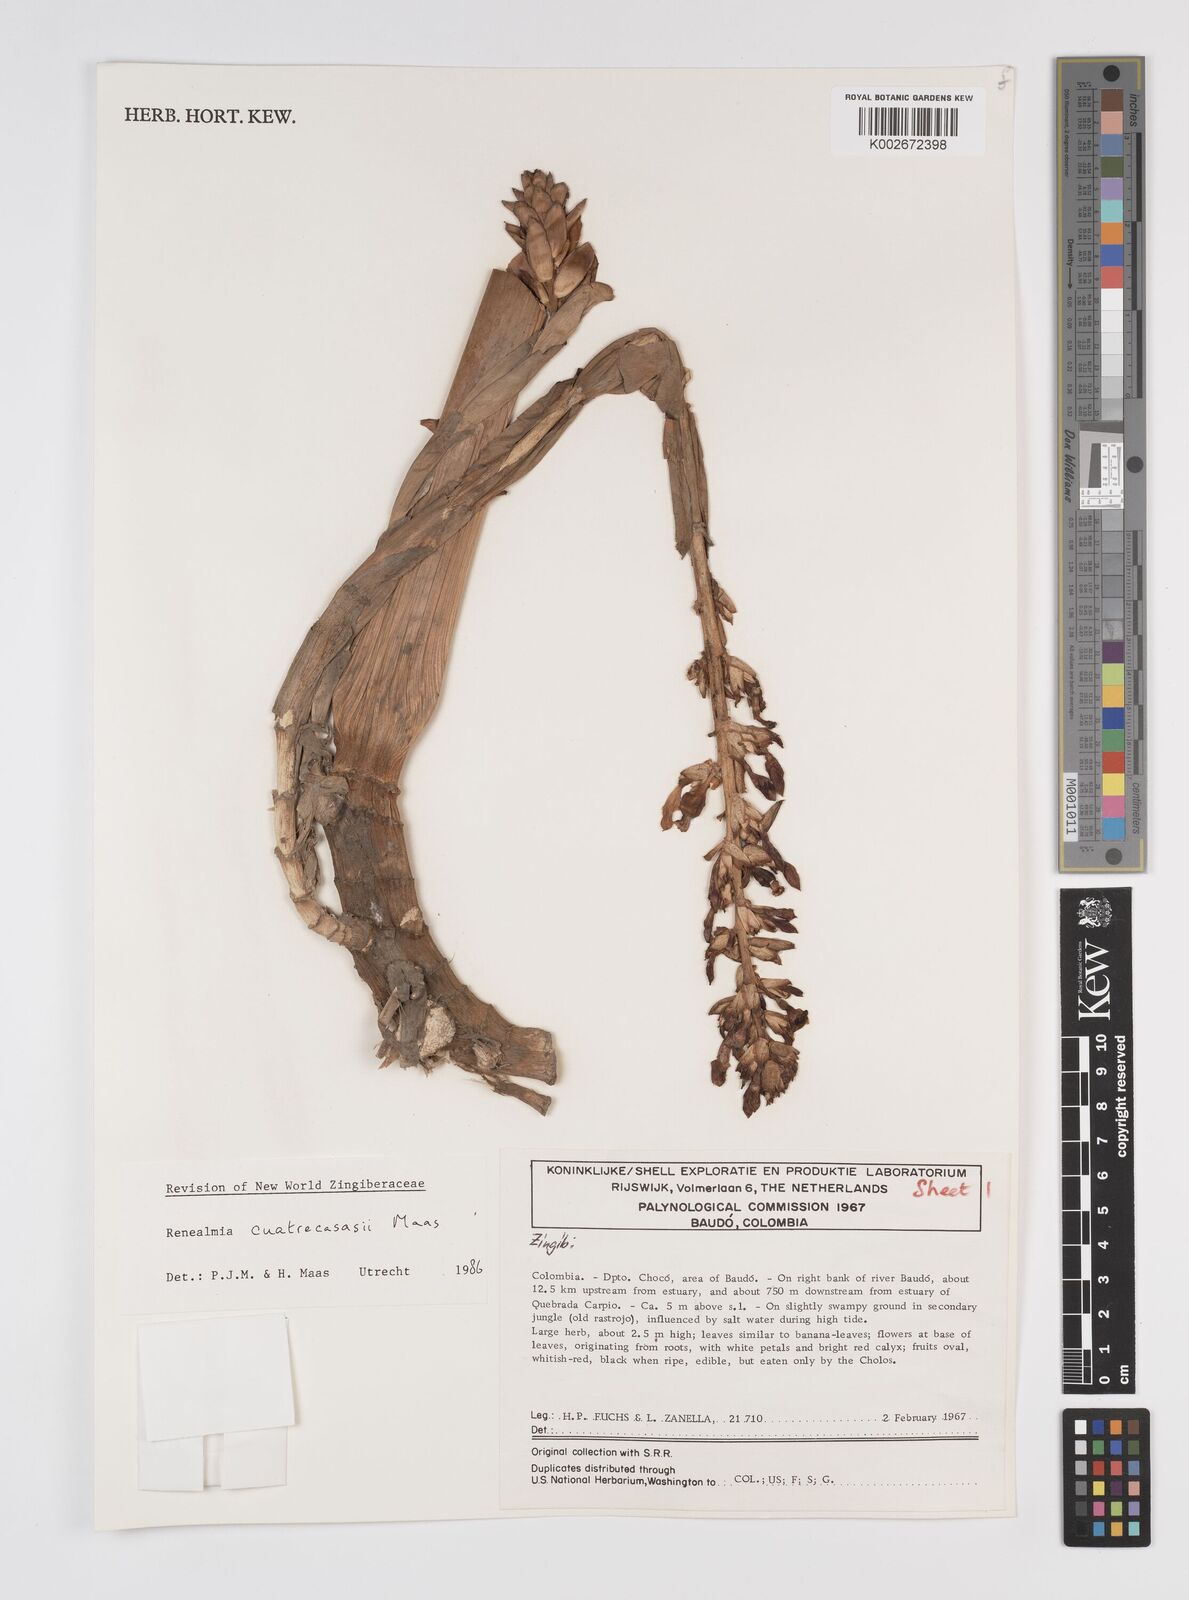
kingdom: Plantae
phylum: Tracheophyta
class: Liliopsida
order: Zingiberales
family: Zingiberaceae
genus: Renealmia
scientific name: Renealmia cuatrecasasii
